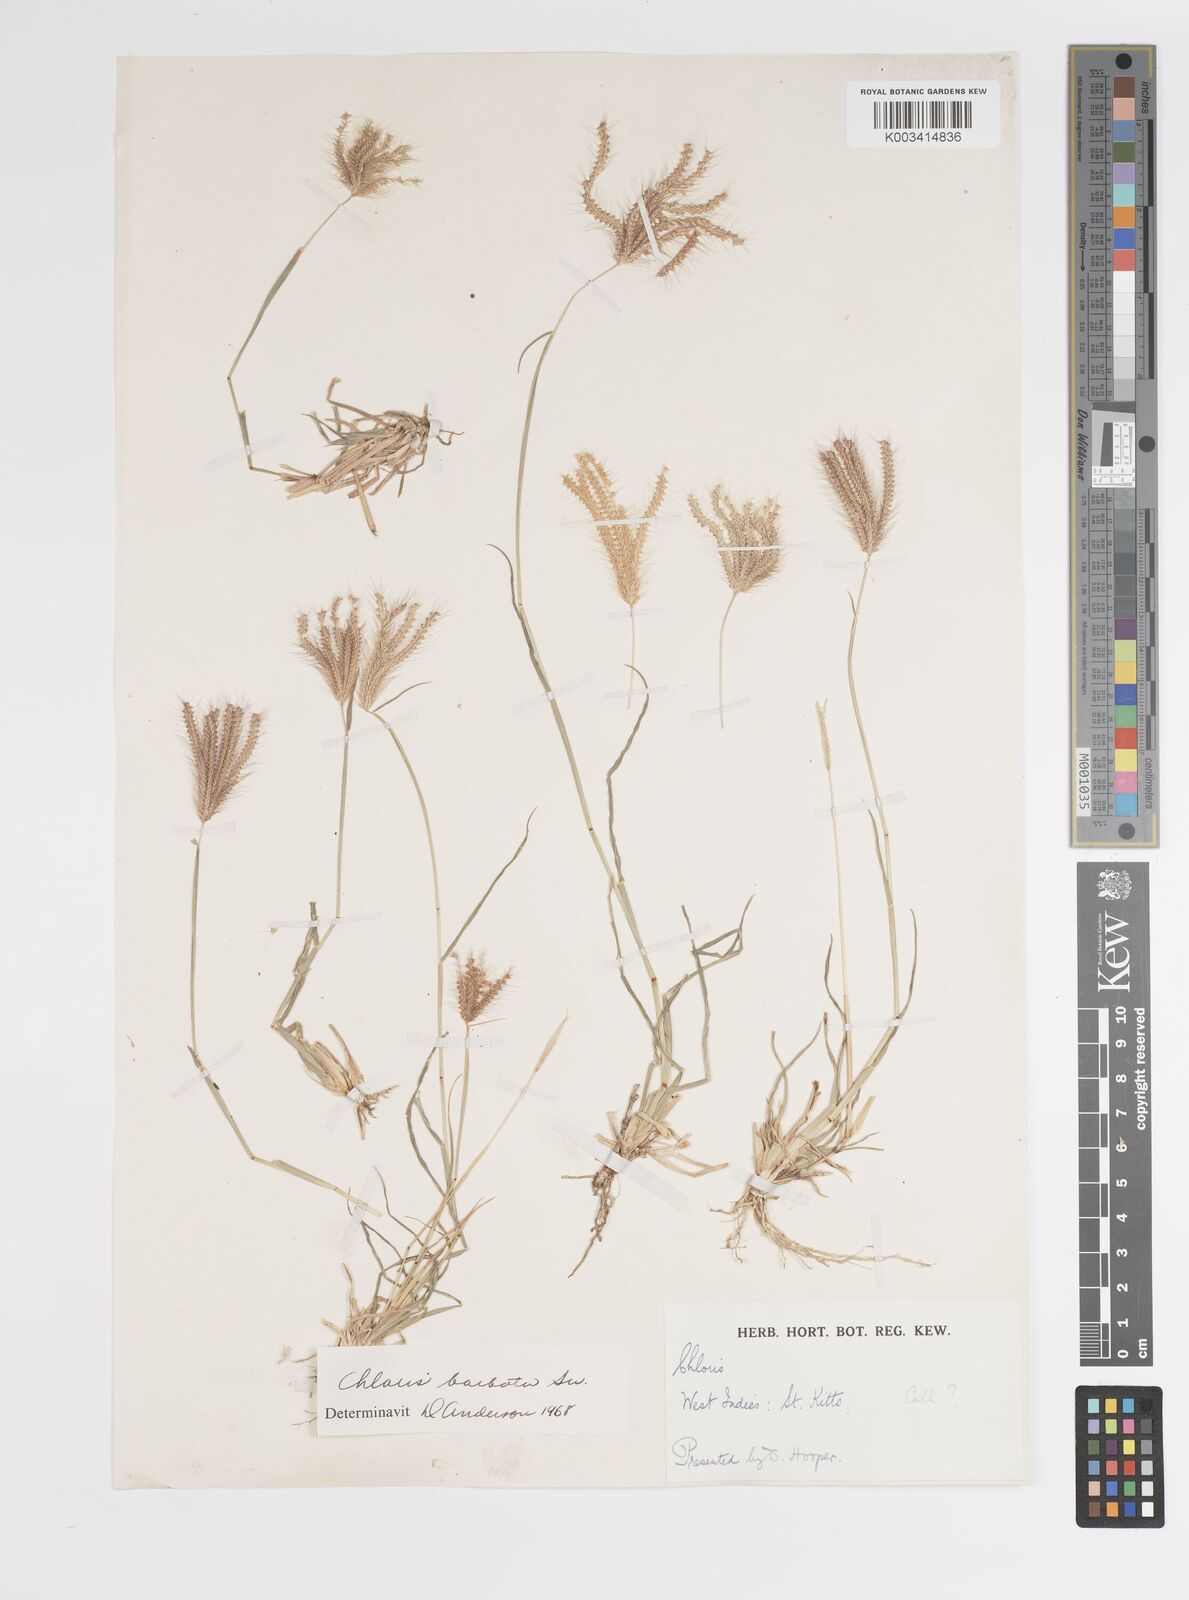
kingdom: Plantae
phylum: Tracheophyta
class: Liliopsida
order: Poales
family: Poaceae
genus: Chloris
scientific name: Chloris barbata
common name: Swollen fingergrass
